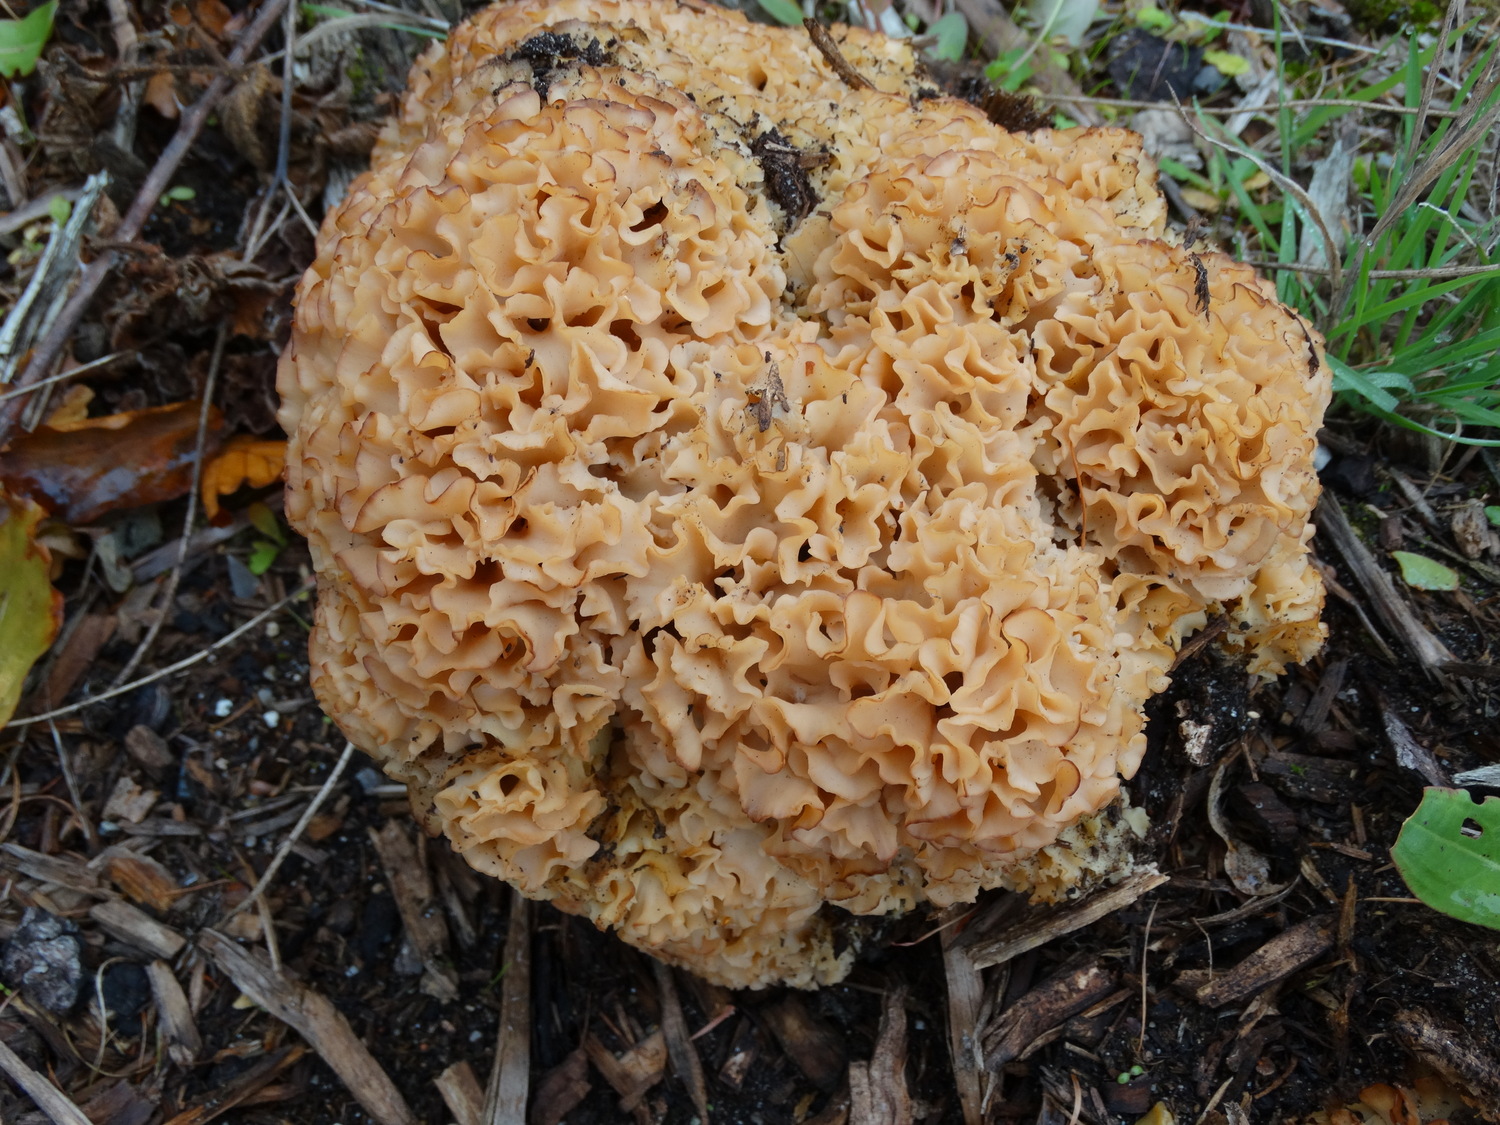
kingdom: Fungi
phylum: Basidiomycota
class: Agaricomycetes
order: Polyporales
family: Sparassidaceae
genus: Sparassis
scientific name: Sparassis crispa
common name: kruset blomkålssvamp
